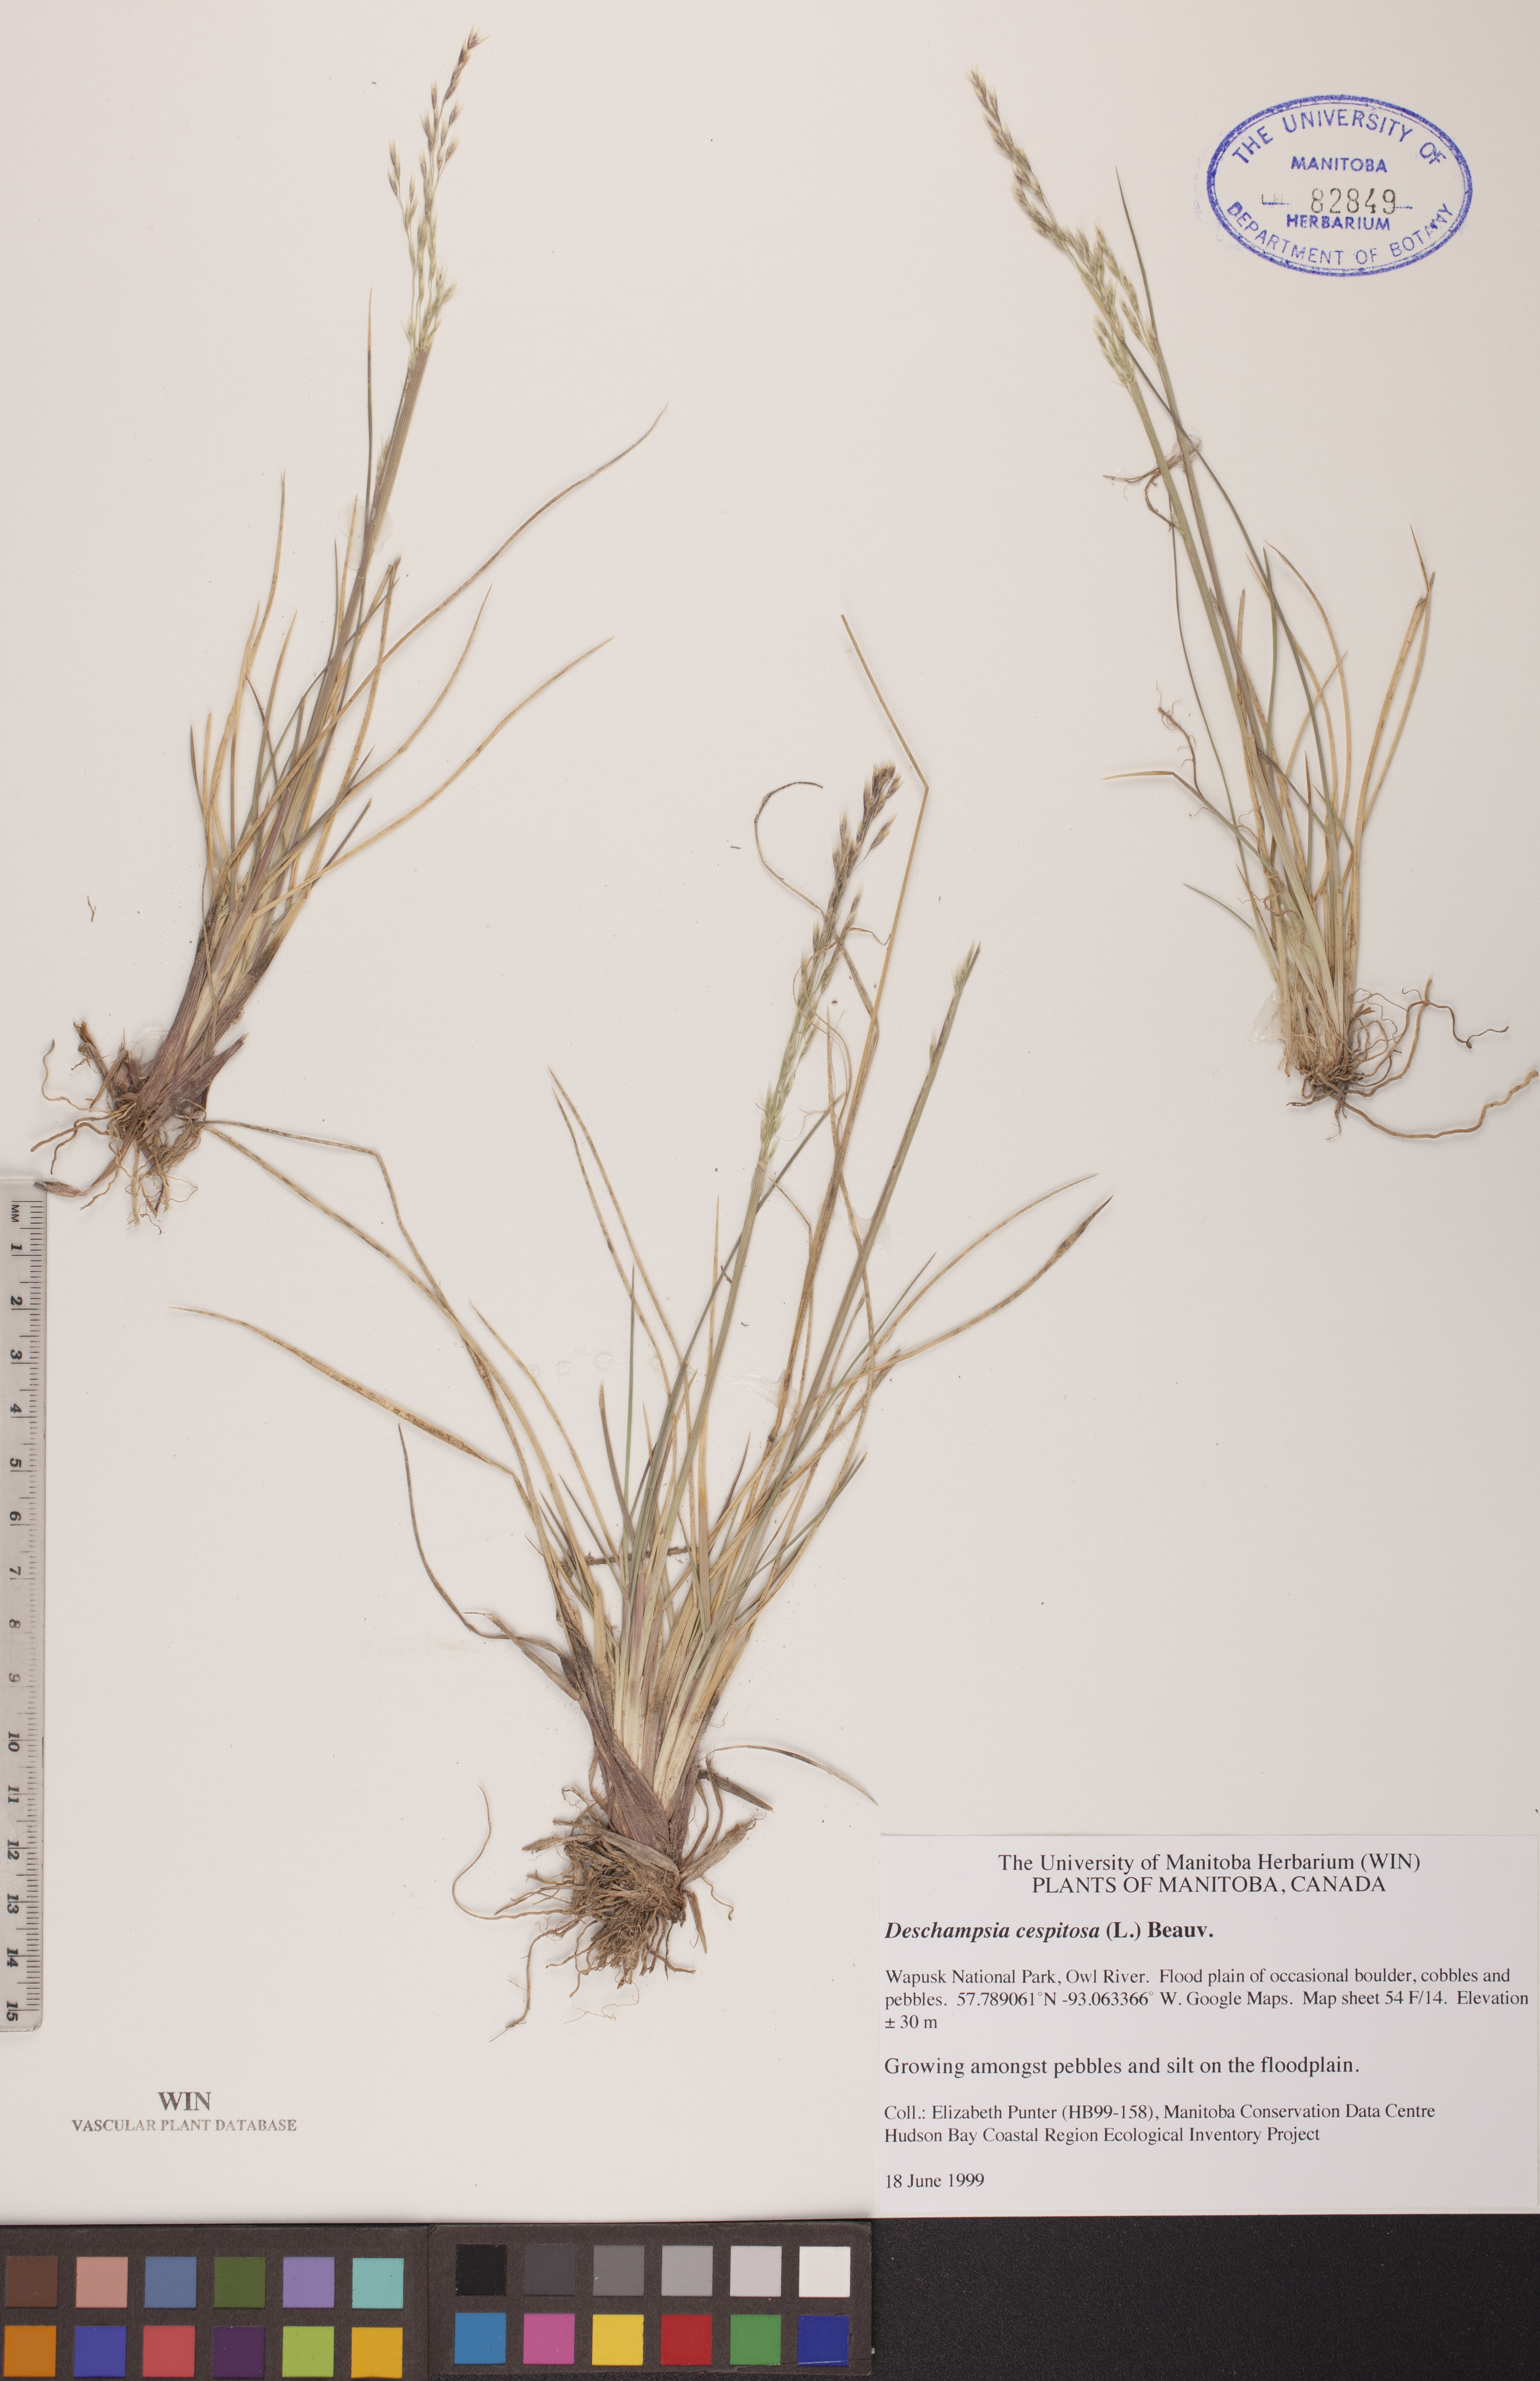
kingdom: Plantae
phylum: Tracheophyta
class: Liliopsida
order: Poales
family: Poaceae
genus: Deschampsia
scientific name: Deschampsia cespitosa
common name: Tufted hair-grass
